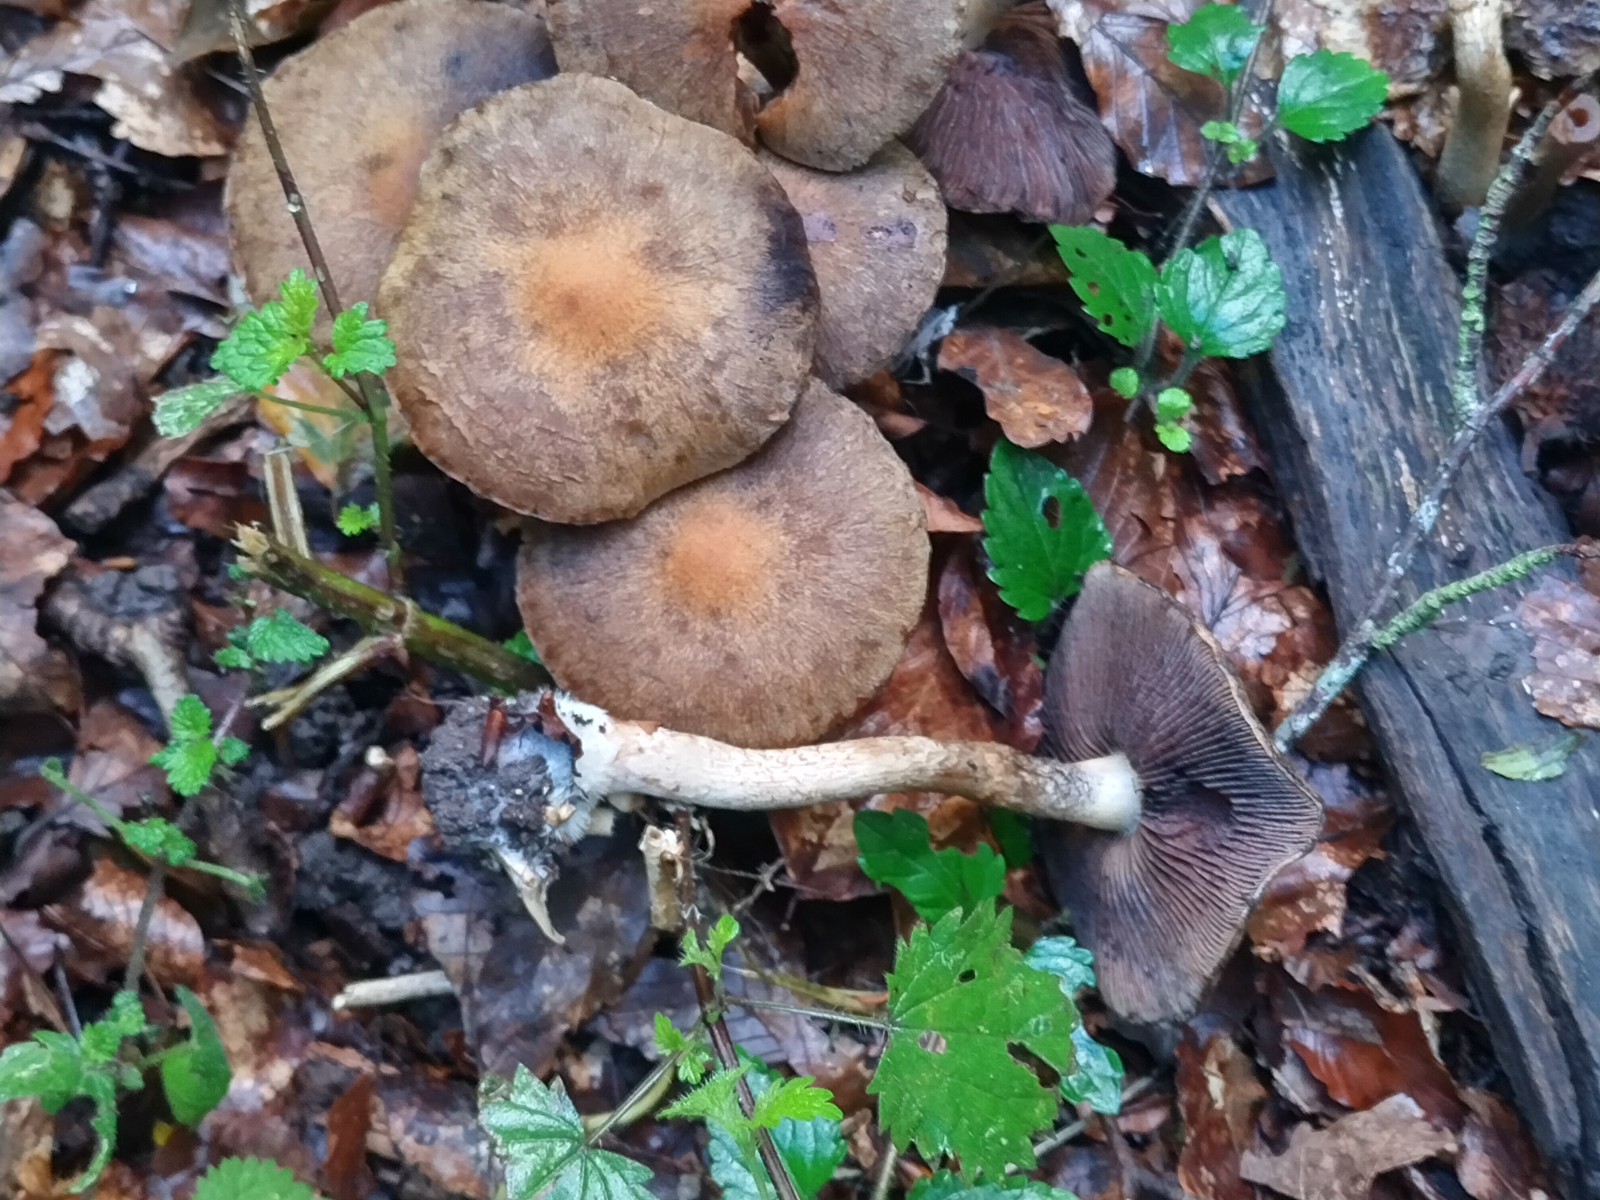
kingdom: Fungi
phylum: Basidiomycota
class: Agaricomycetes
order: Agaricales
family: Psathyrellaceae
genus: Lacrymaria
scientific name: Lacrymaria lacrymabunda
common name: grædende mørkhat
